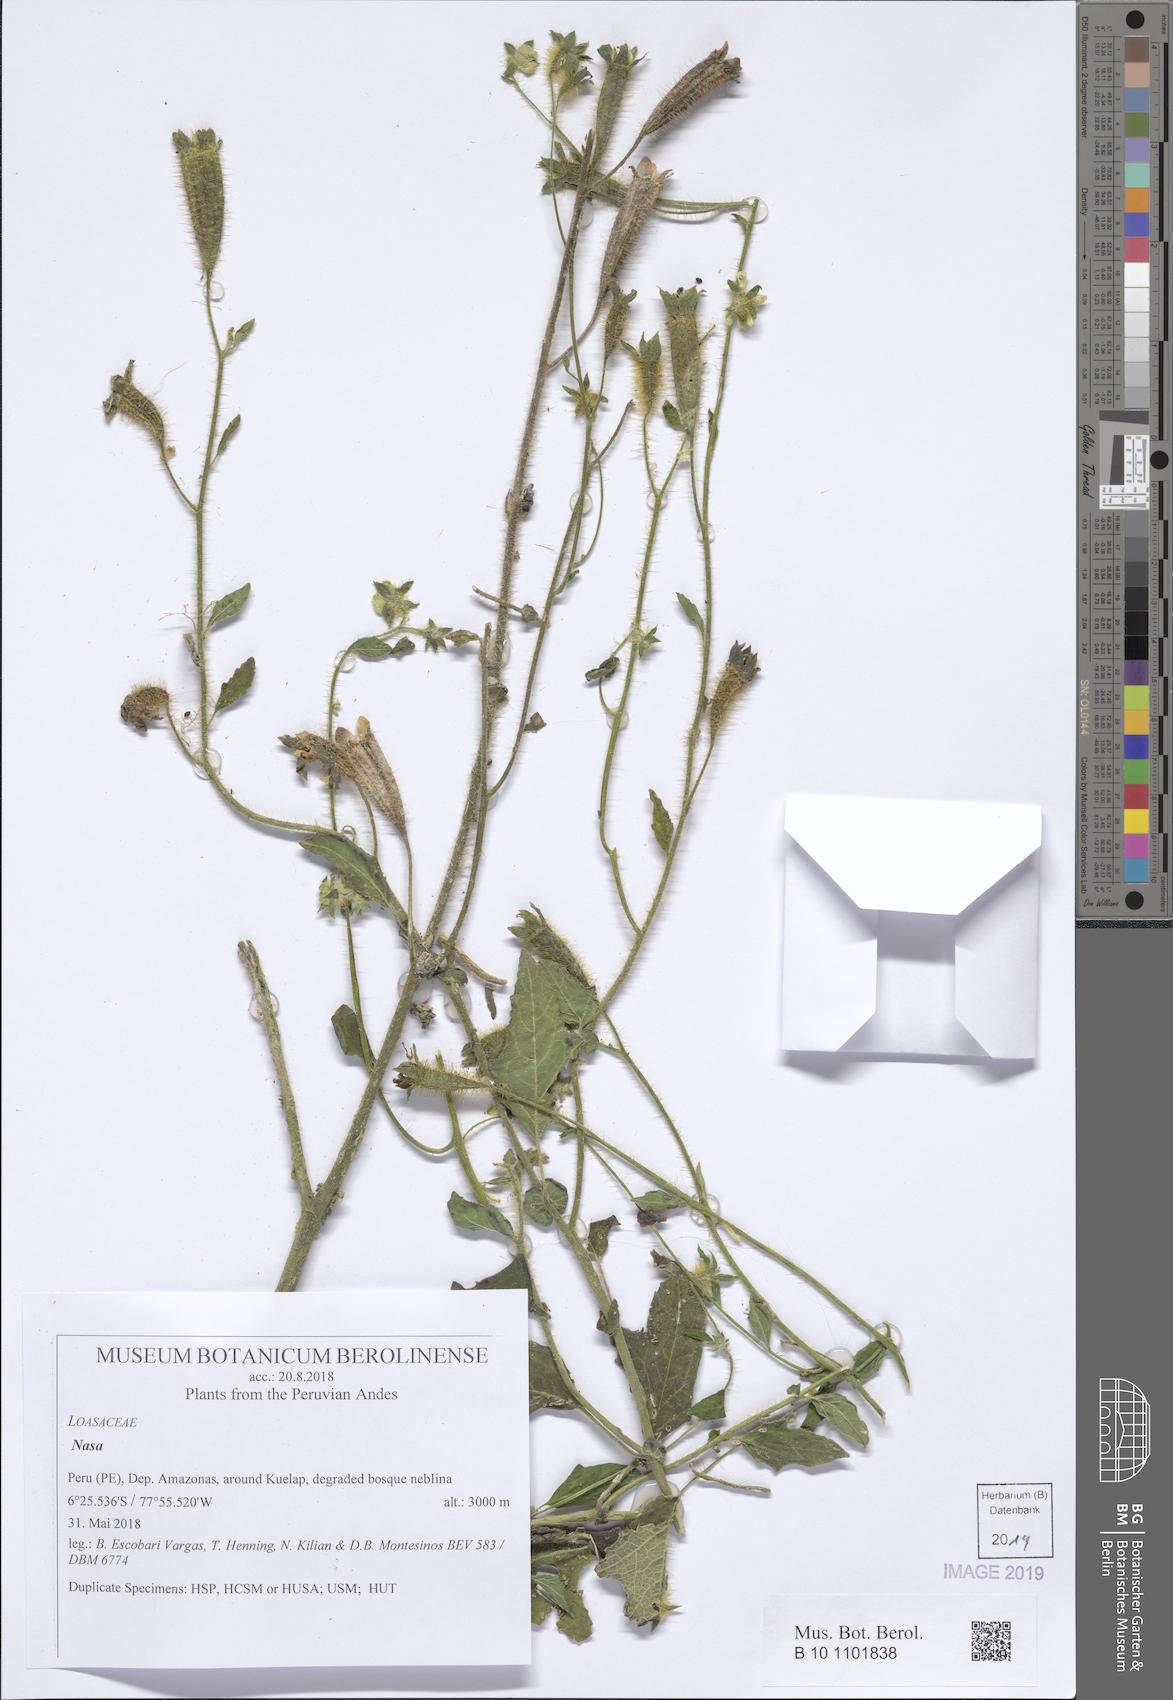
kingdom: Plantae
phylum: Tracheophyta
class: Magnoliopsida
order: Cornales
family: Loasaceae
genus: Nasa
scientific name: Nasa kuelapensis
